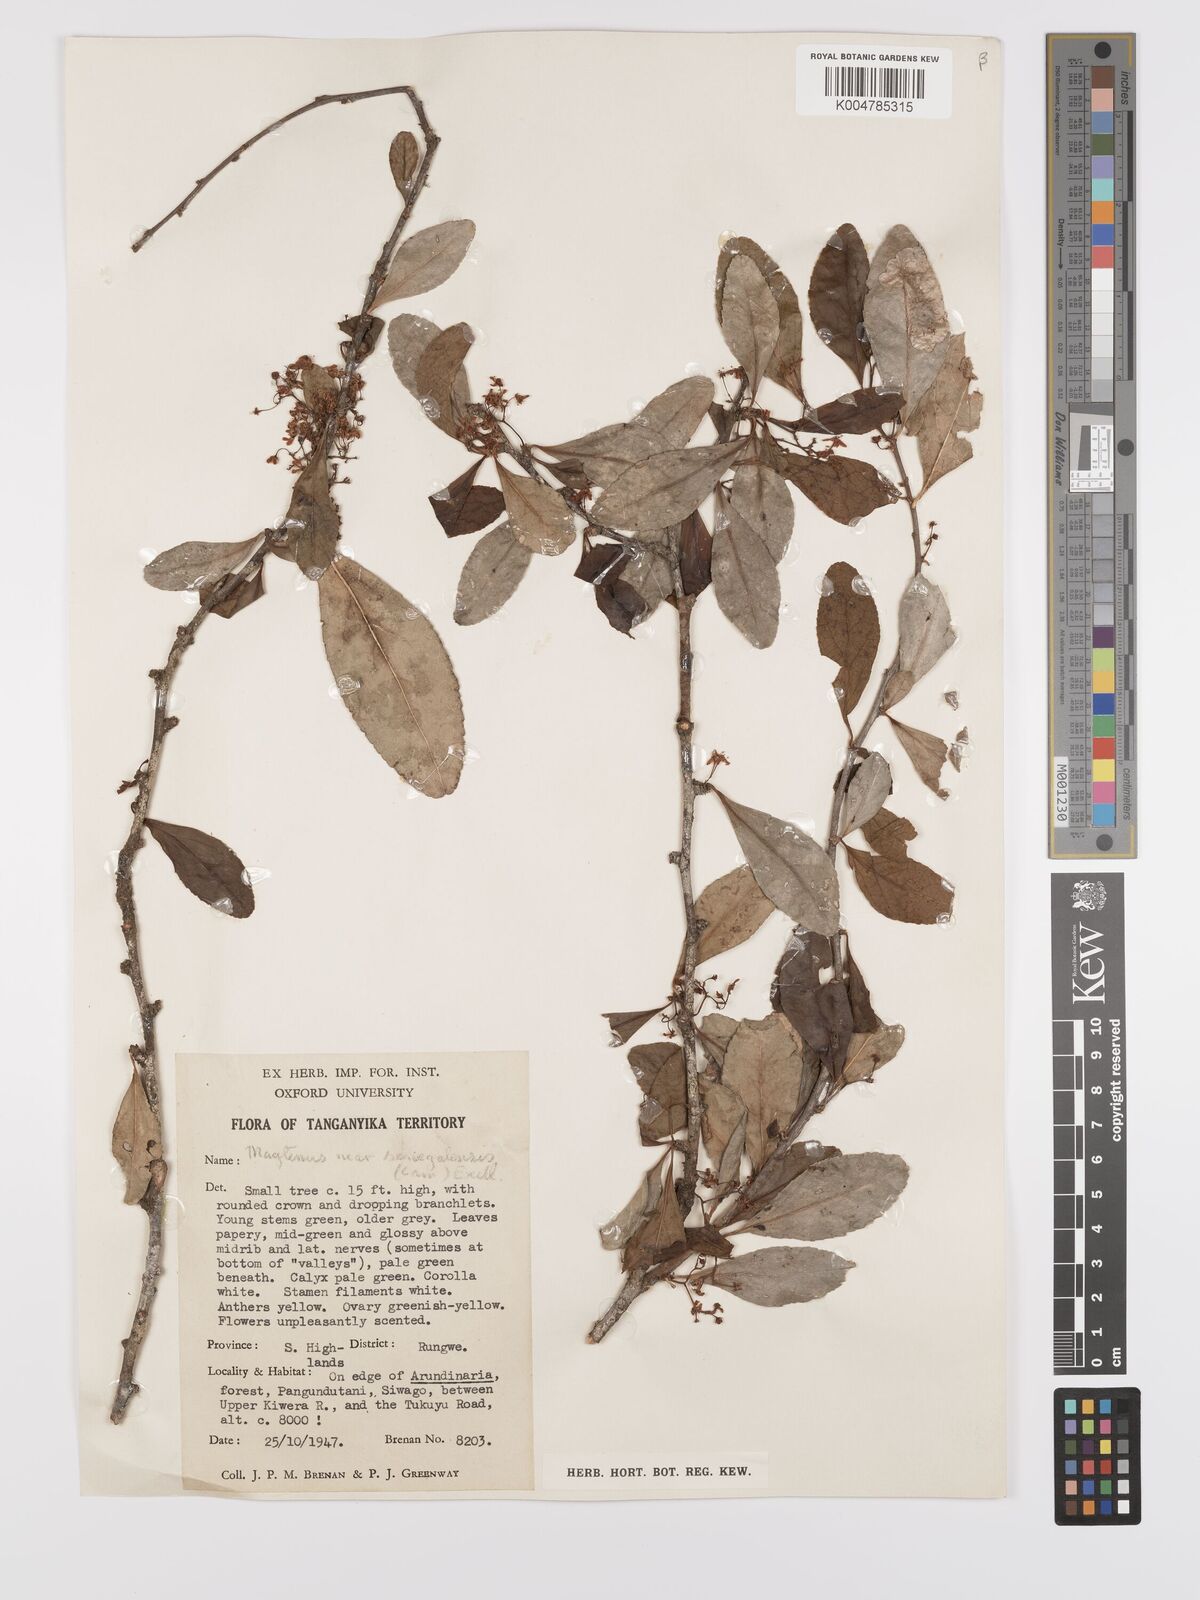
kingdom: Plantae
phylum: Tracheophyta
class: Magnoliopsida
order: Celastrales
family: Celastraceae
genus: Gymnosporia
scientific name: Gymnosporia heterophylla
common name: Angle-stem spikethorn
